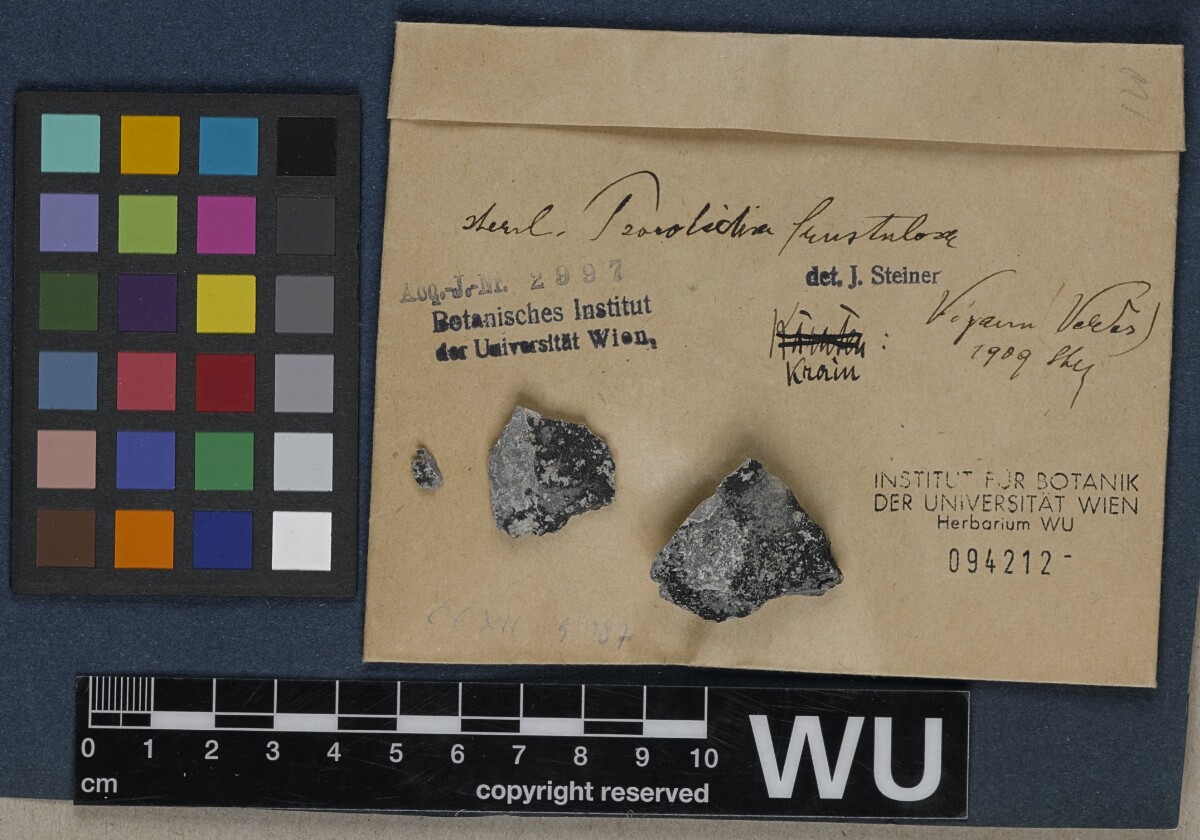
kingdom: Fungi
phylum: Ascomycota
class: Lichinomycetes
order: Lichinales
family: Lichinaceae
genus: Psorotichia
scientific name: Psorotichia frustulosa
